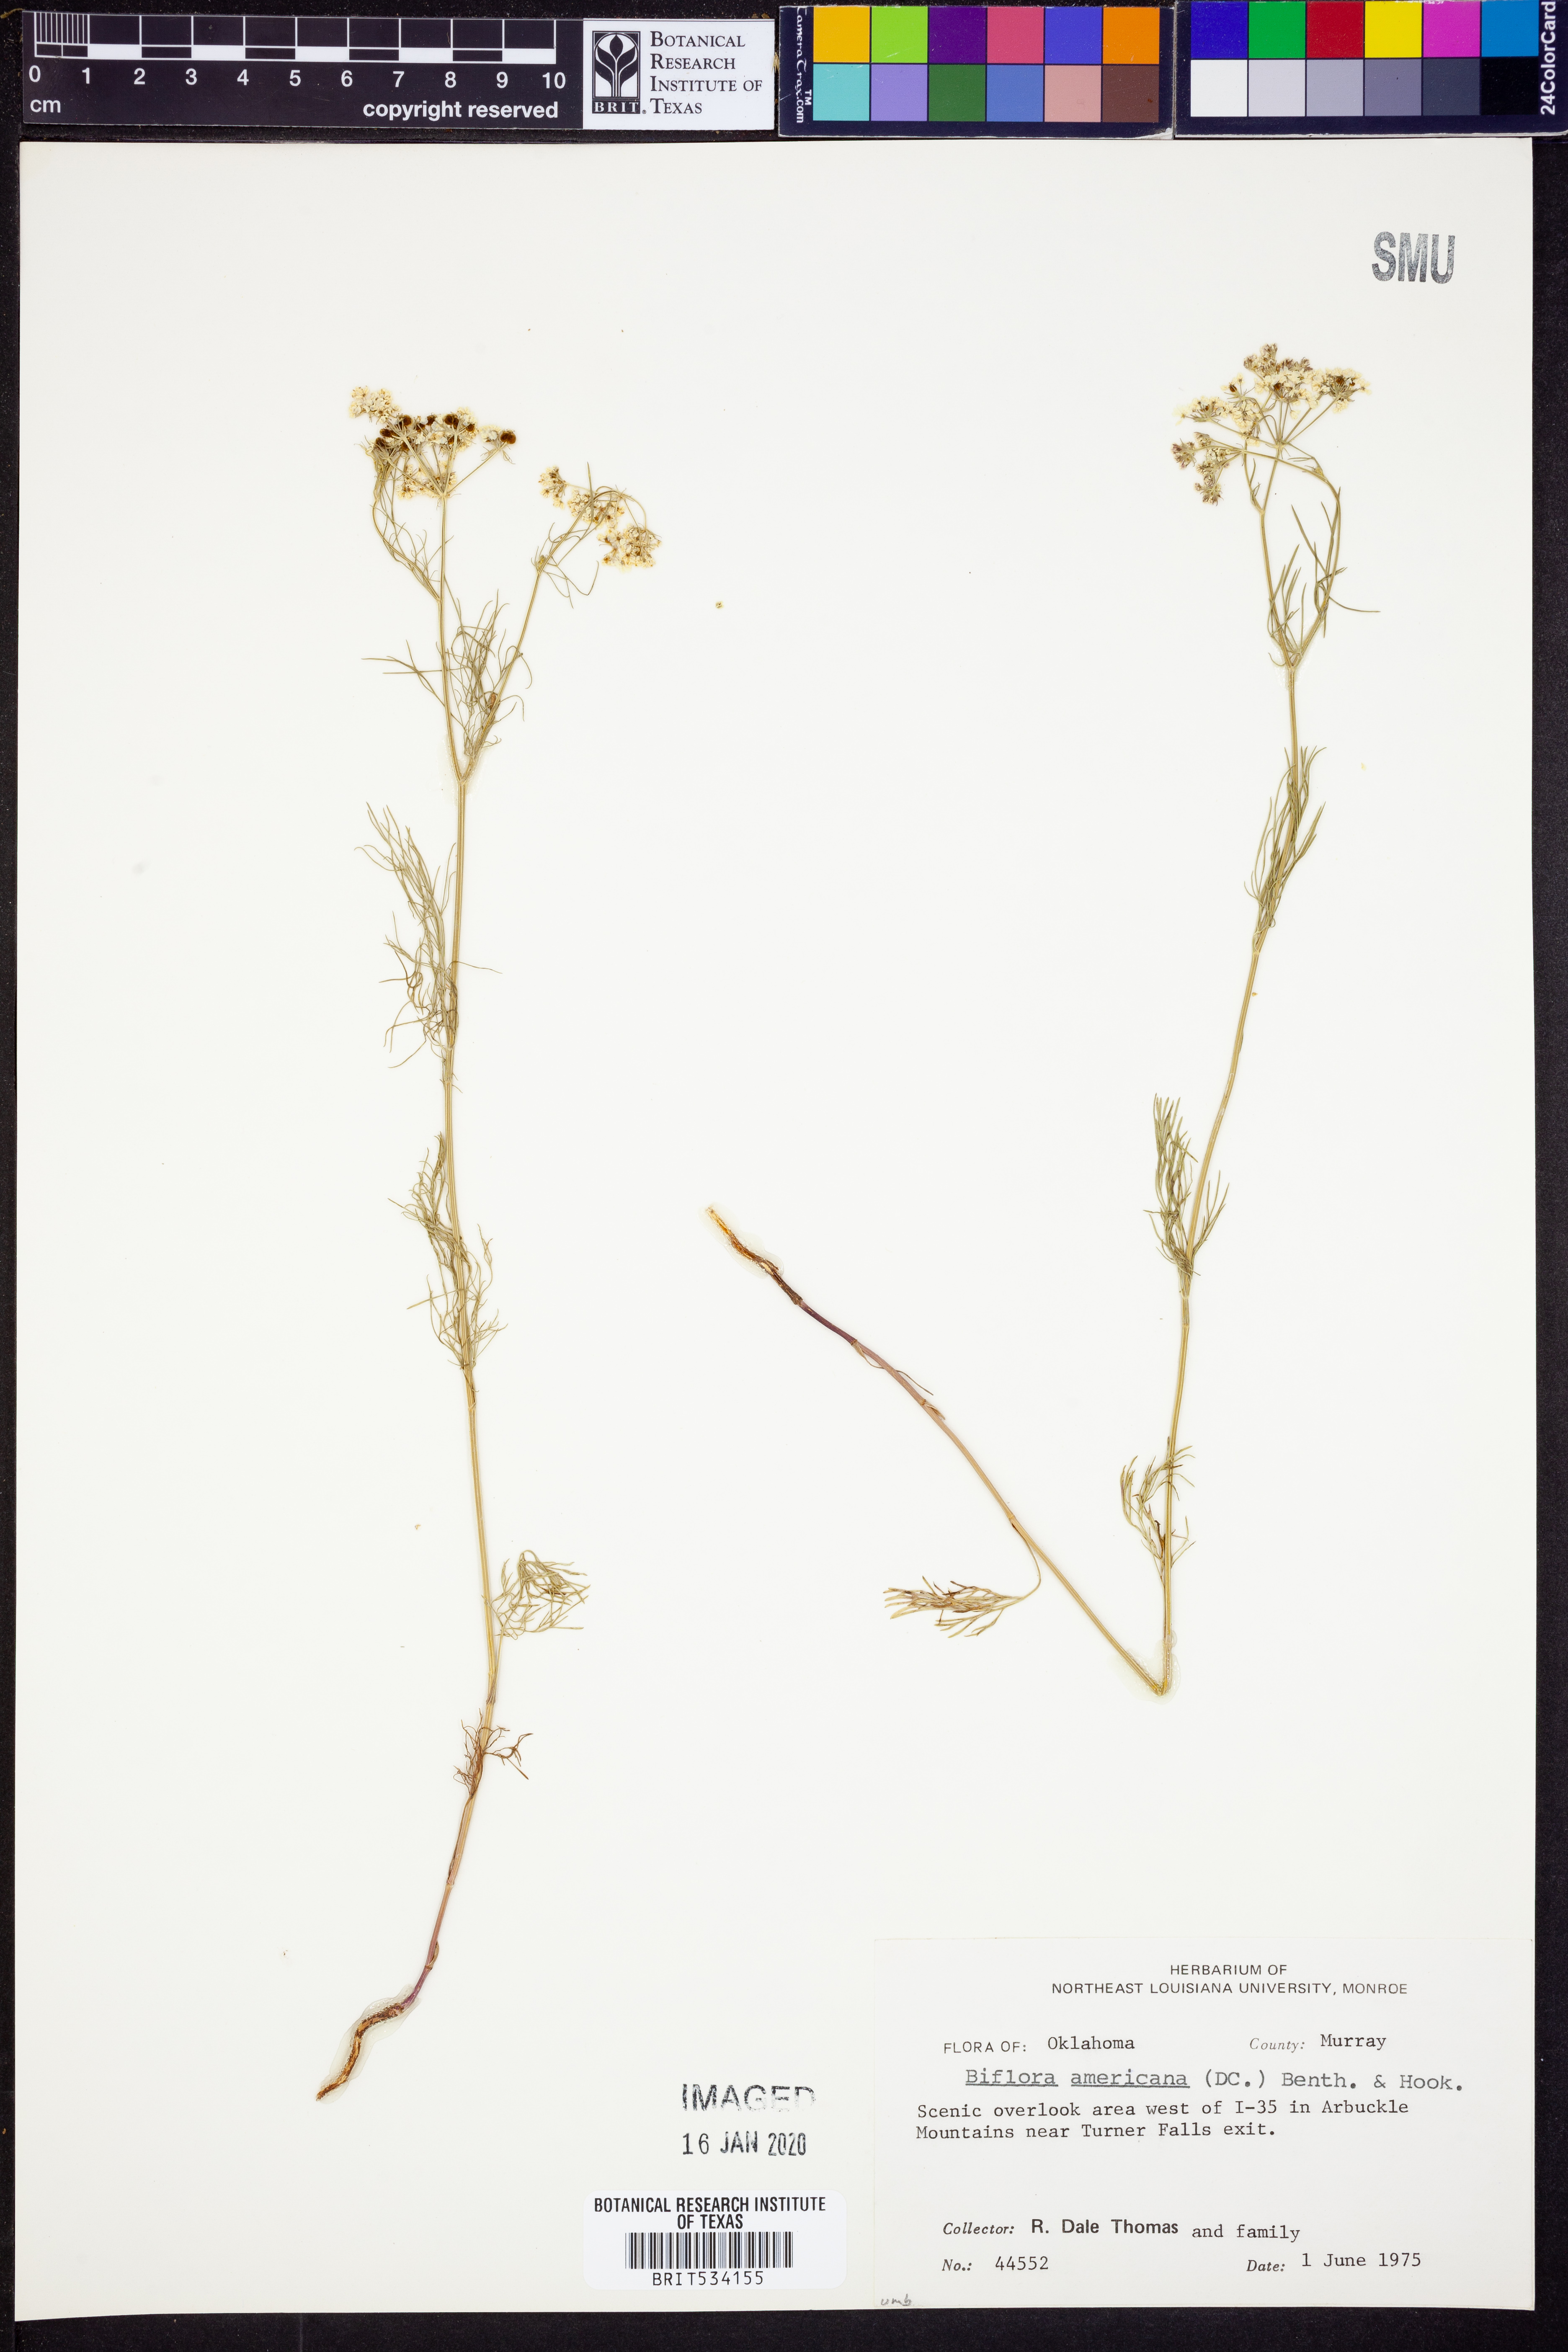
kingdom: Plantae
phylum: Tracheophyta
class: Magnoliopsida
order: Apiales
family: Apiaceae
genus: Atrema
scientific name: Atrema americanum
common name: Prairie-bishop
